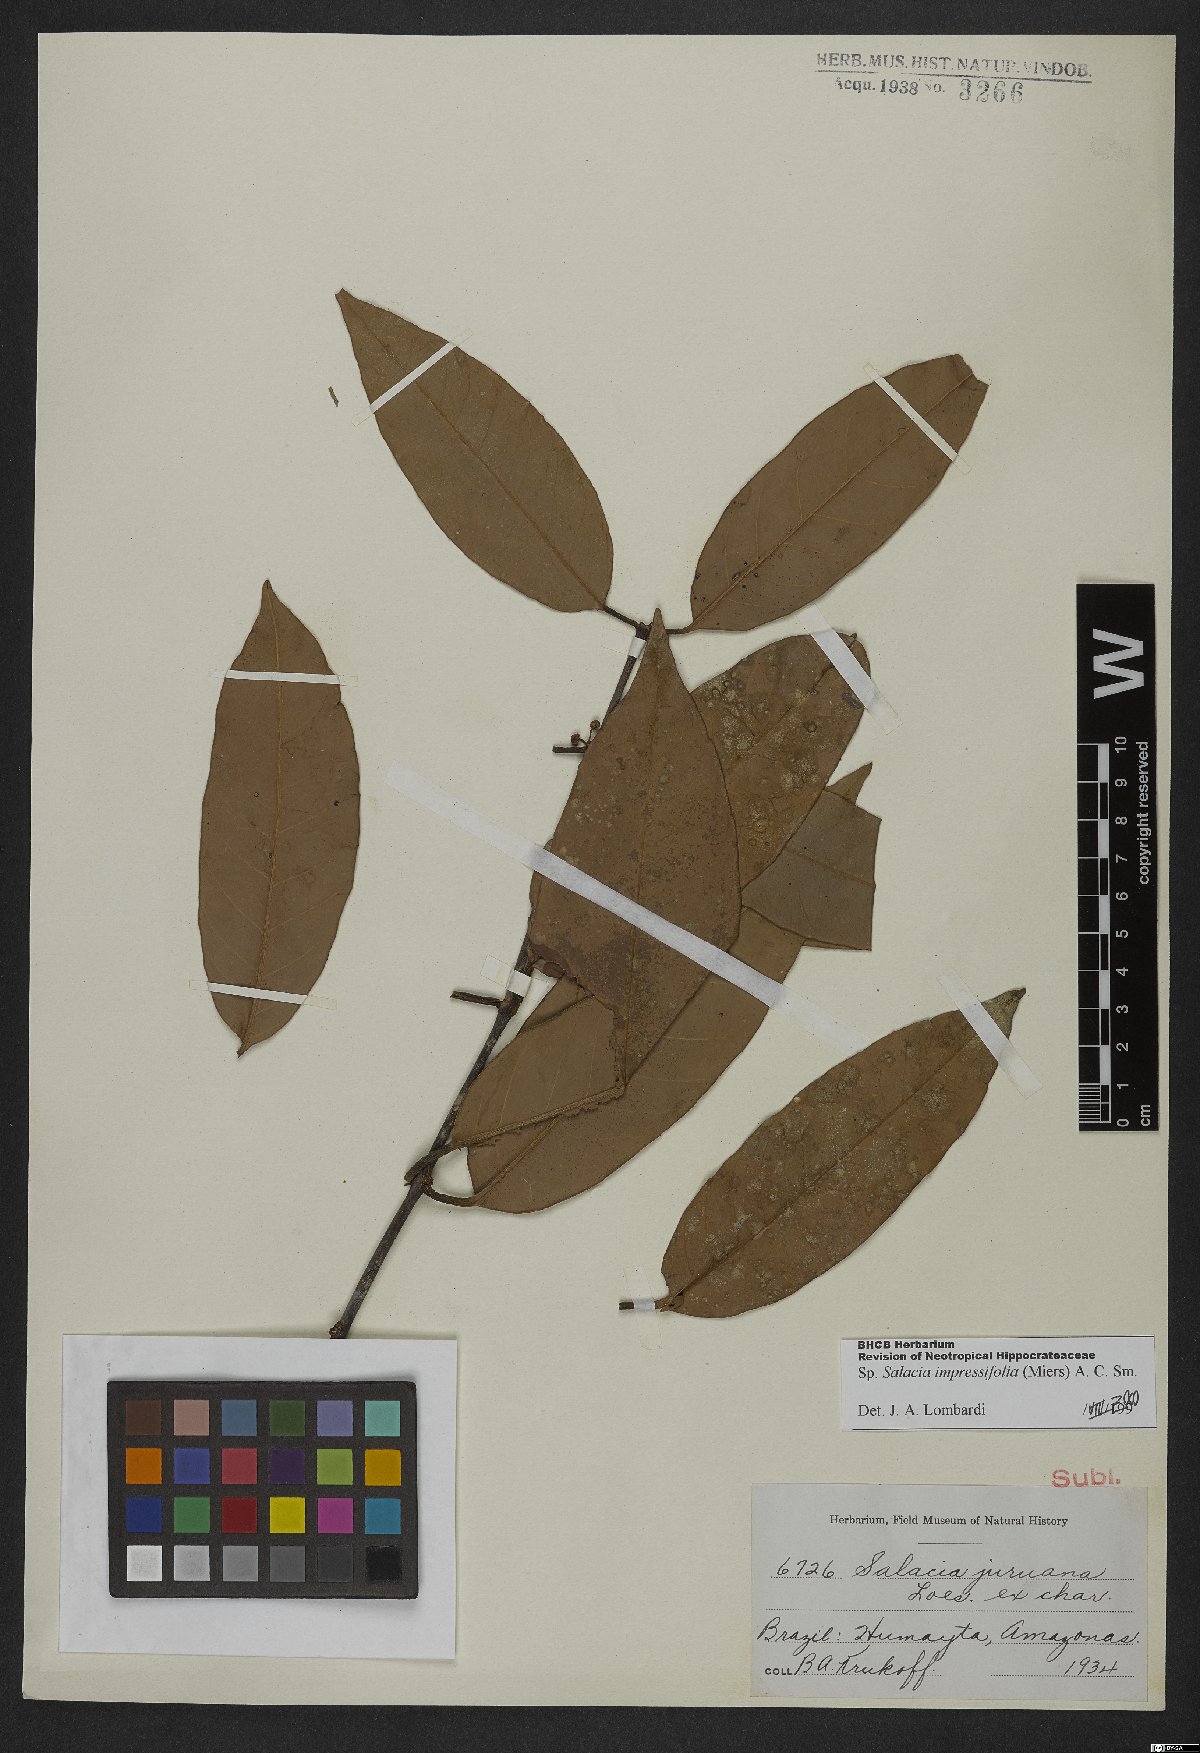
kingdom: Plantae
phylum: Tracheophyta
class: Magnoliopsida
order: Celastrales
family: Celastraceae
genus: Salacia
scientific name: Salacia impressifolia
